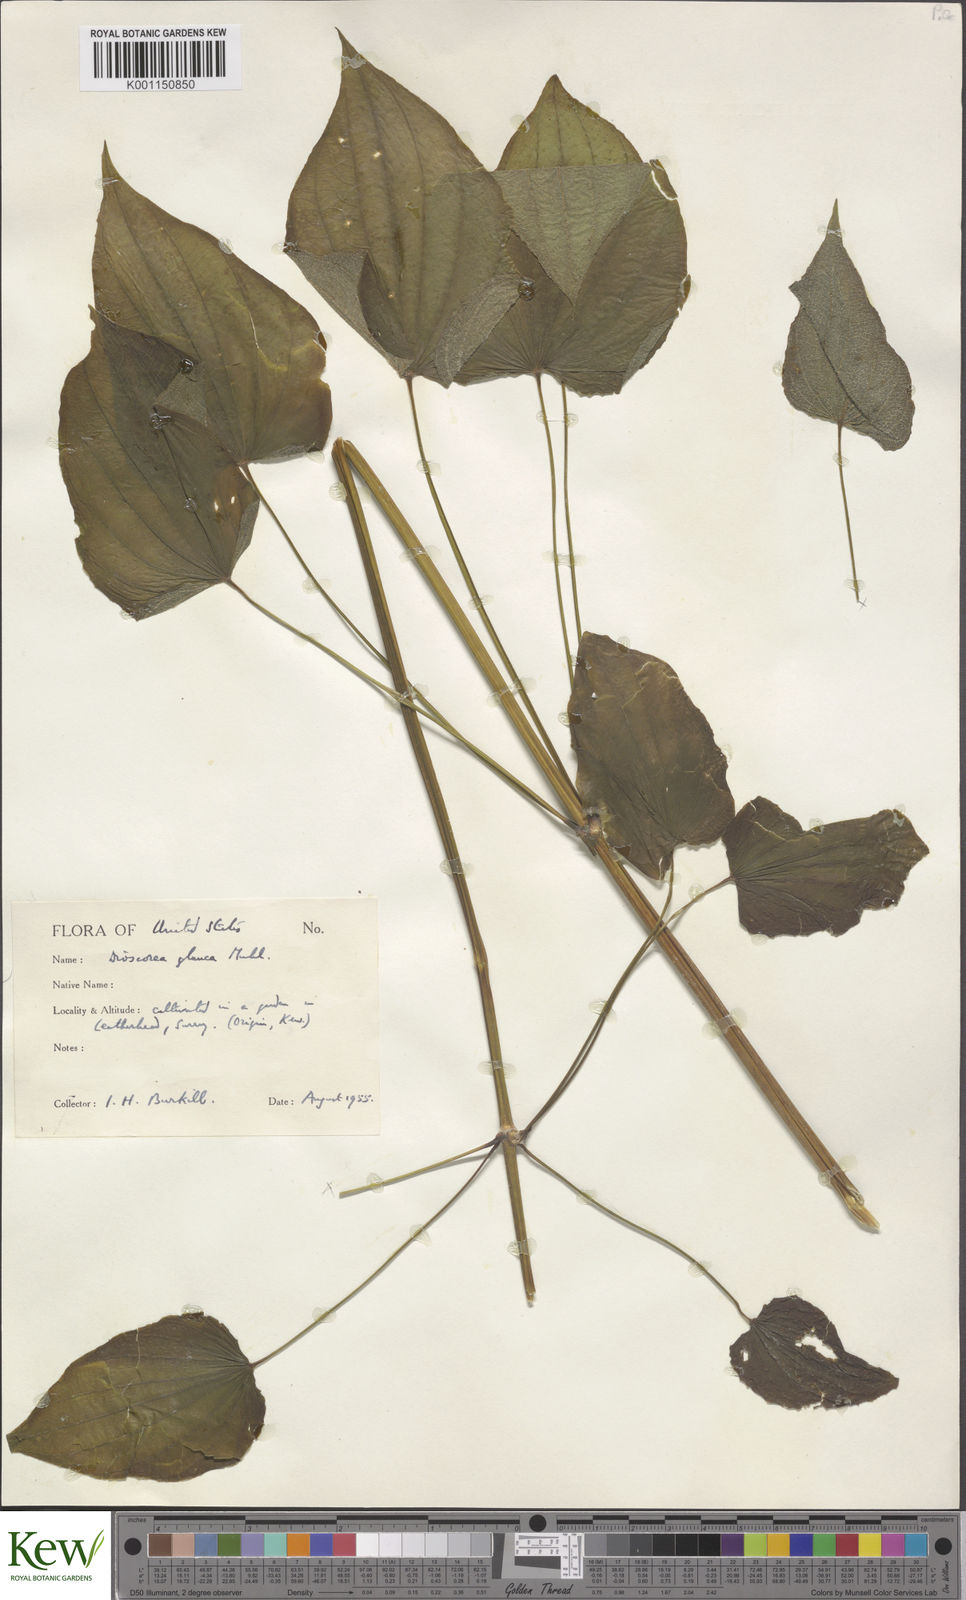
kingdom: Plantae
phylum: Tracheophyta
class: Liliopsida
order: Dioscoreales
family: Dioscoreaceae
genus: Dioscorea
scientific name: Dioscorea villosa
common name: Wild yam
